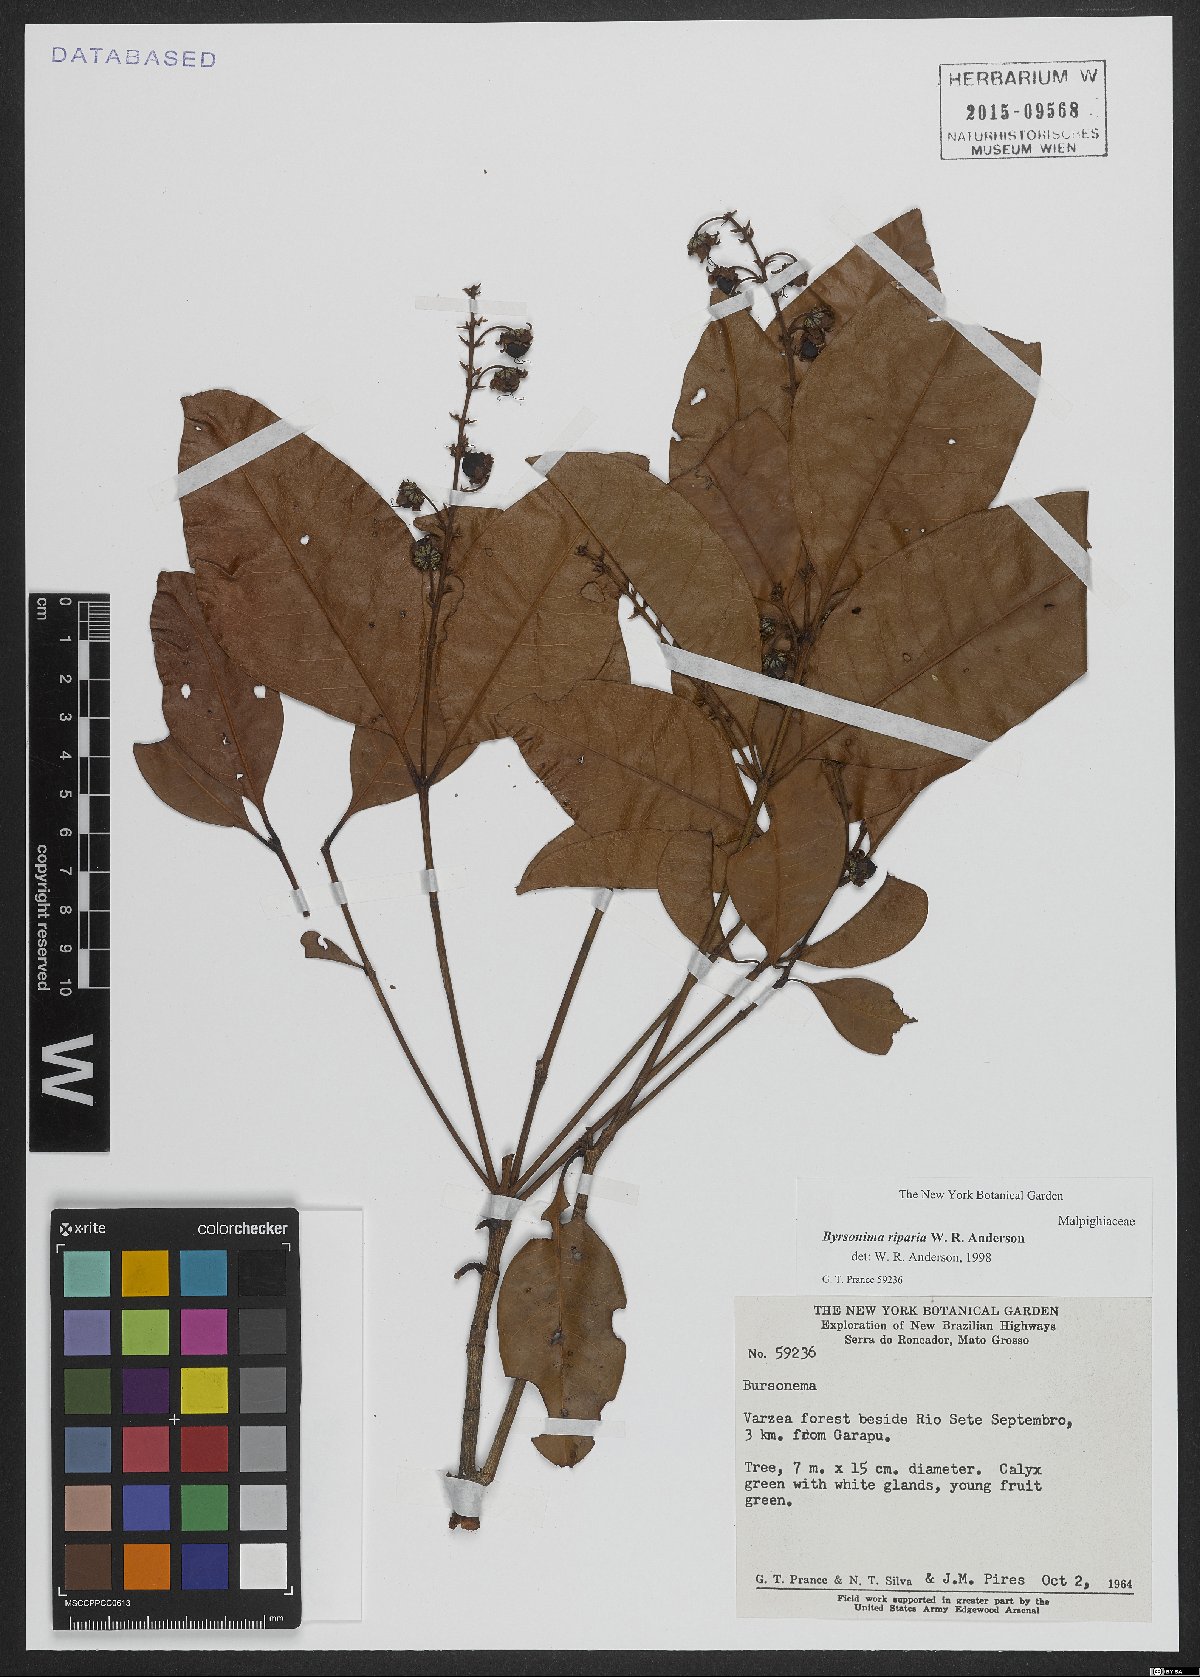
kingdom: Plantae
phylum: Tracheophyta
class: Magnoliopsida
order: Malpighiales
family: Malpighiaceae
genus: Byrsonima
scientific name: Byrsonima riparia
